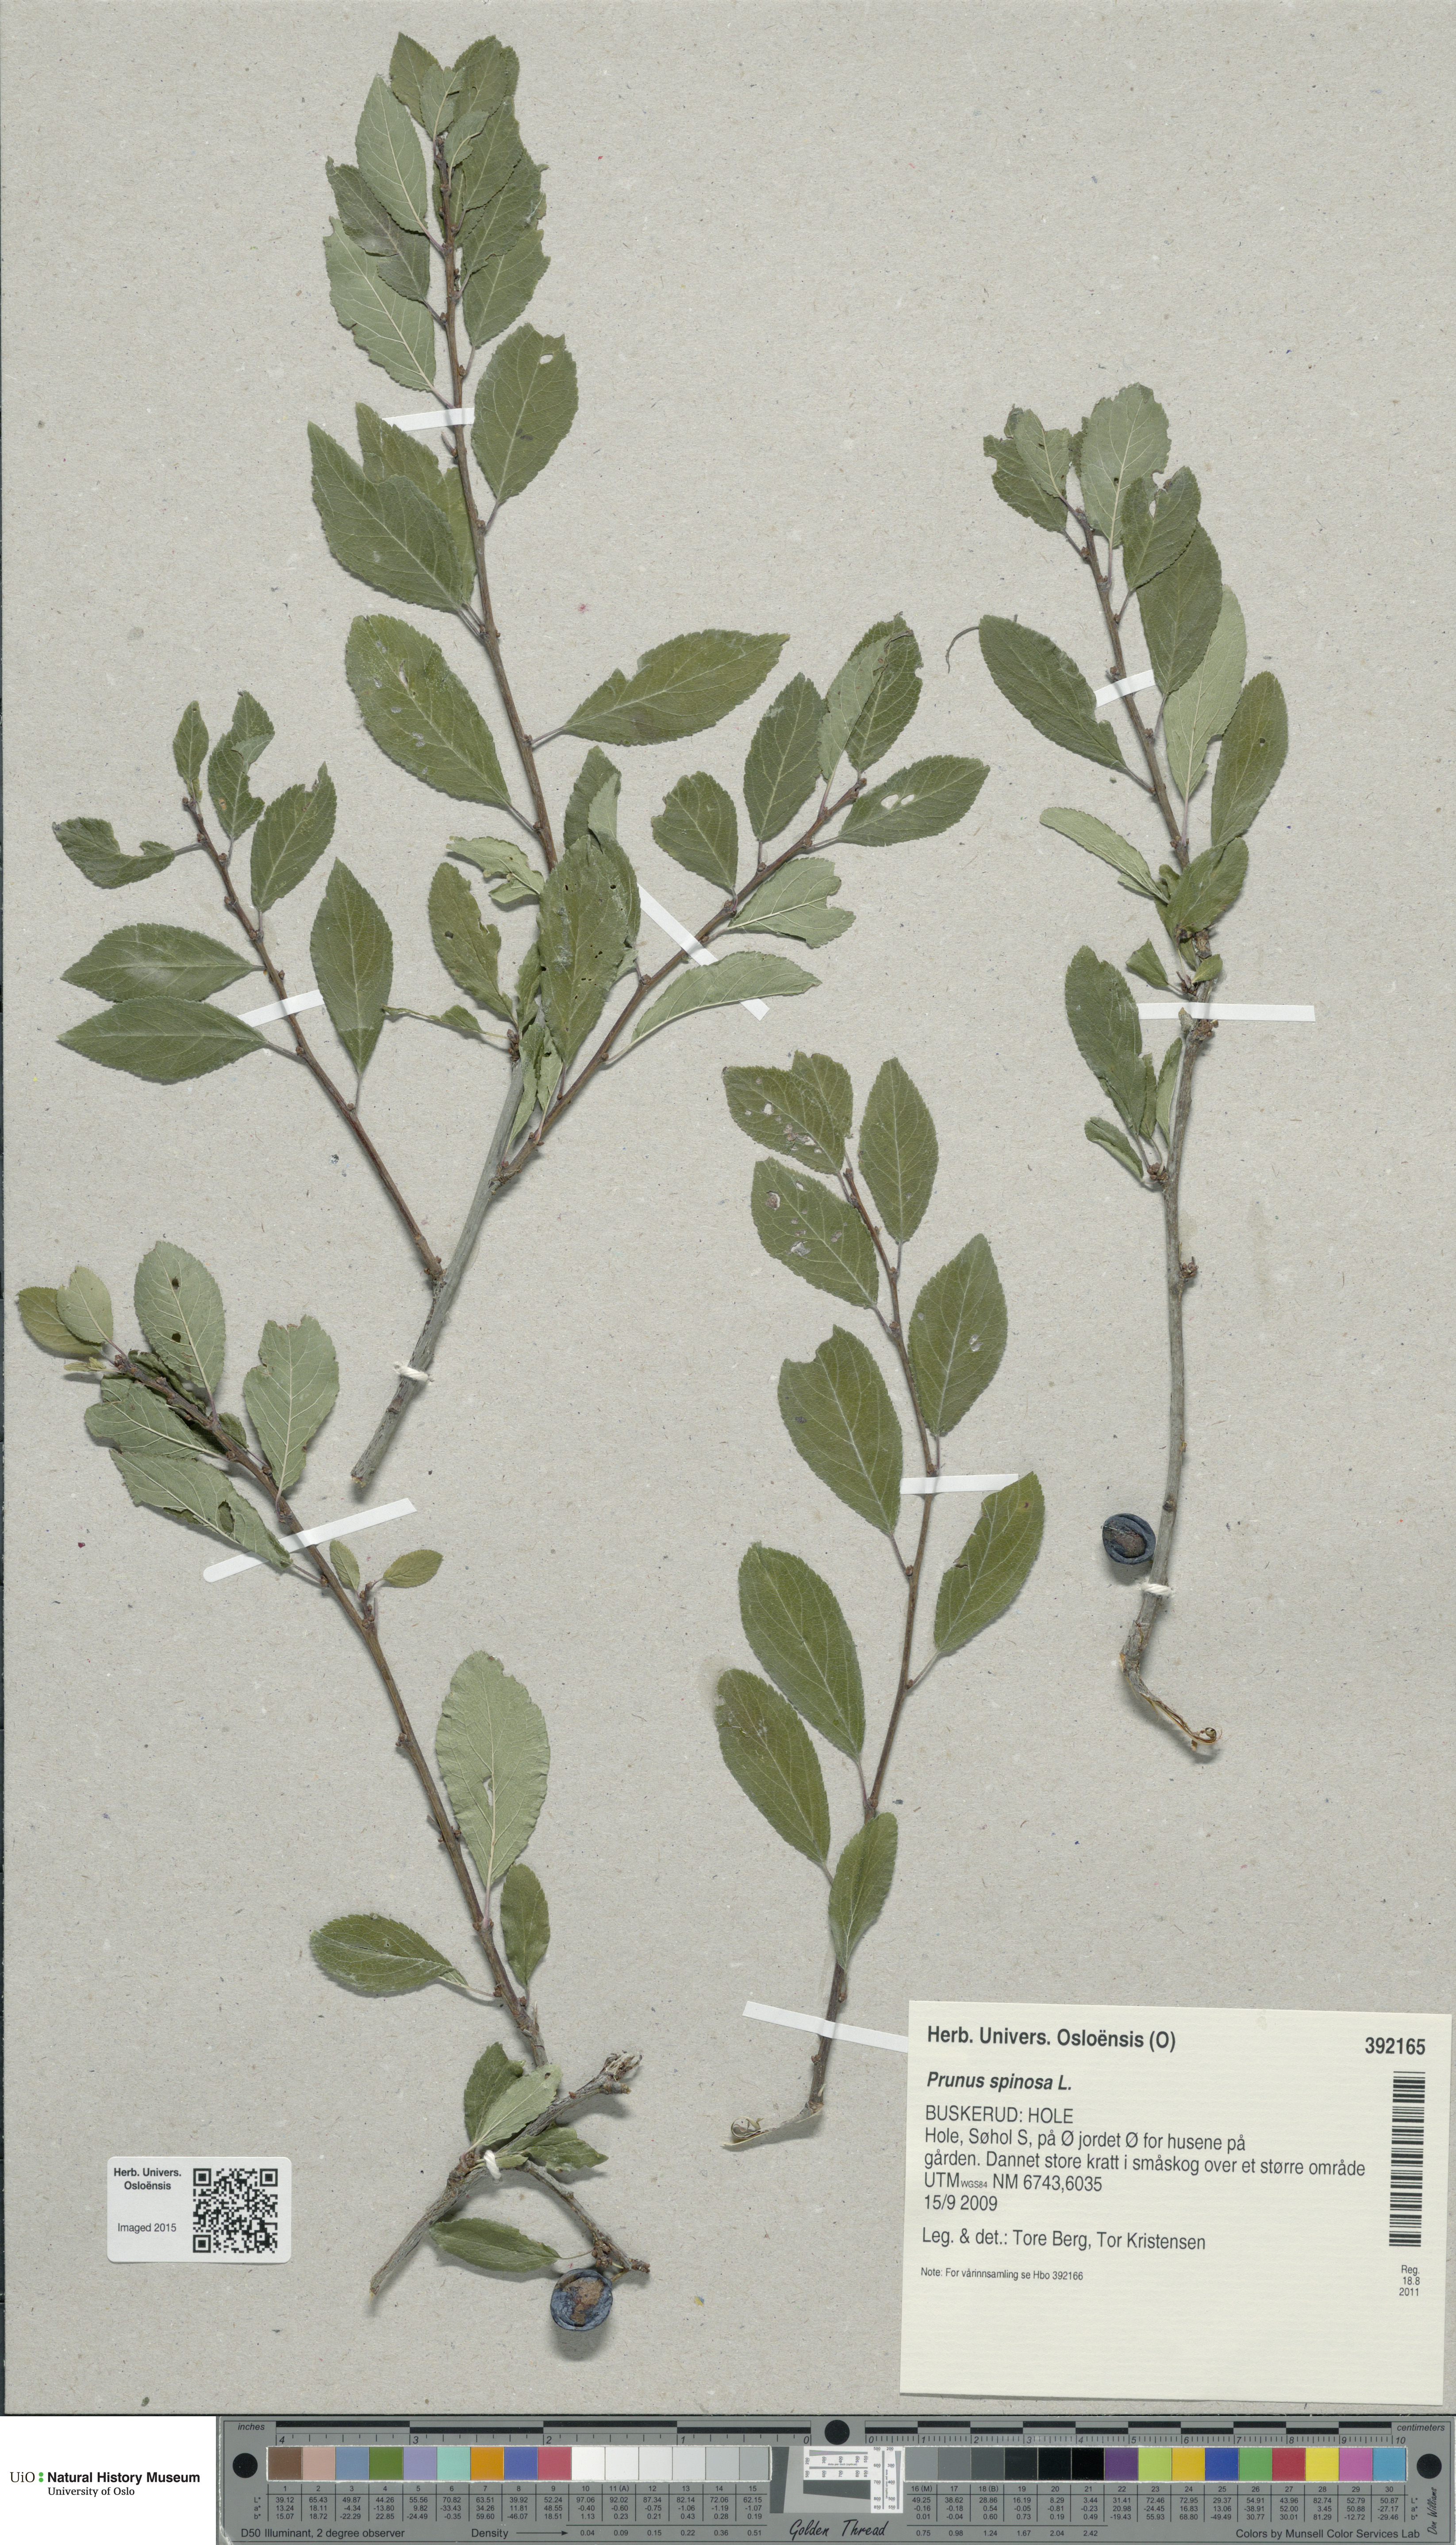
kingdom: Plantae
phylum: Tracheophyta
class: Magnoliopsida
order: Rosales
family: Rosaceae
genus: Prunus
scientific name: Prunus spinosa
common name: Blackthorn
